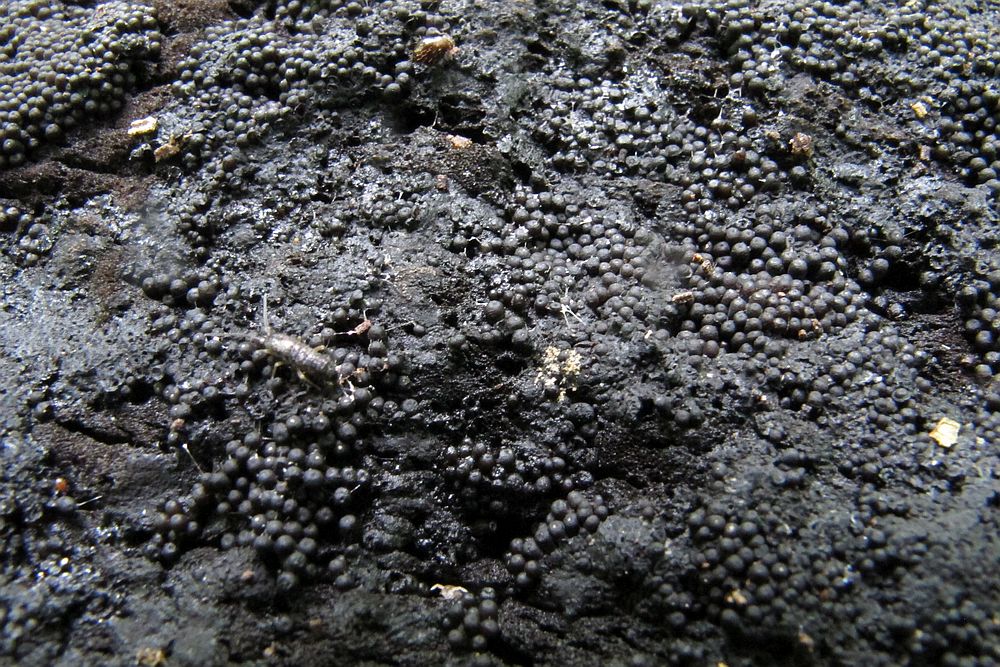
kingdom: Fungi
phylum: Ascomycota
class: Sordariomycetes
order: Sordariales
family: Bombardiaceae
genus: Bombardia
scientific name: Bombardia bombarda
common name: lædersæk-kernesvamp
